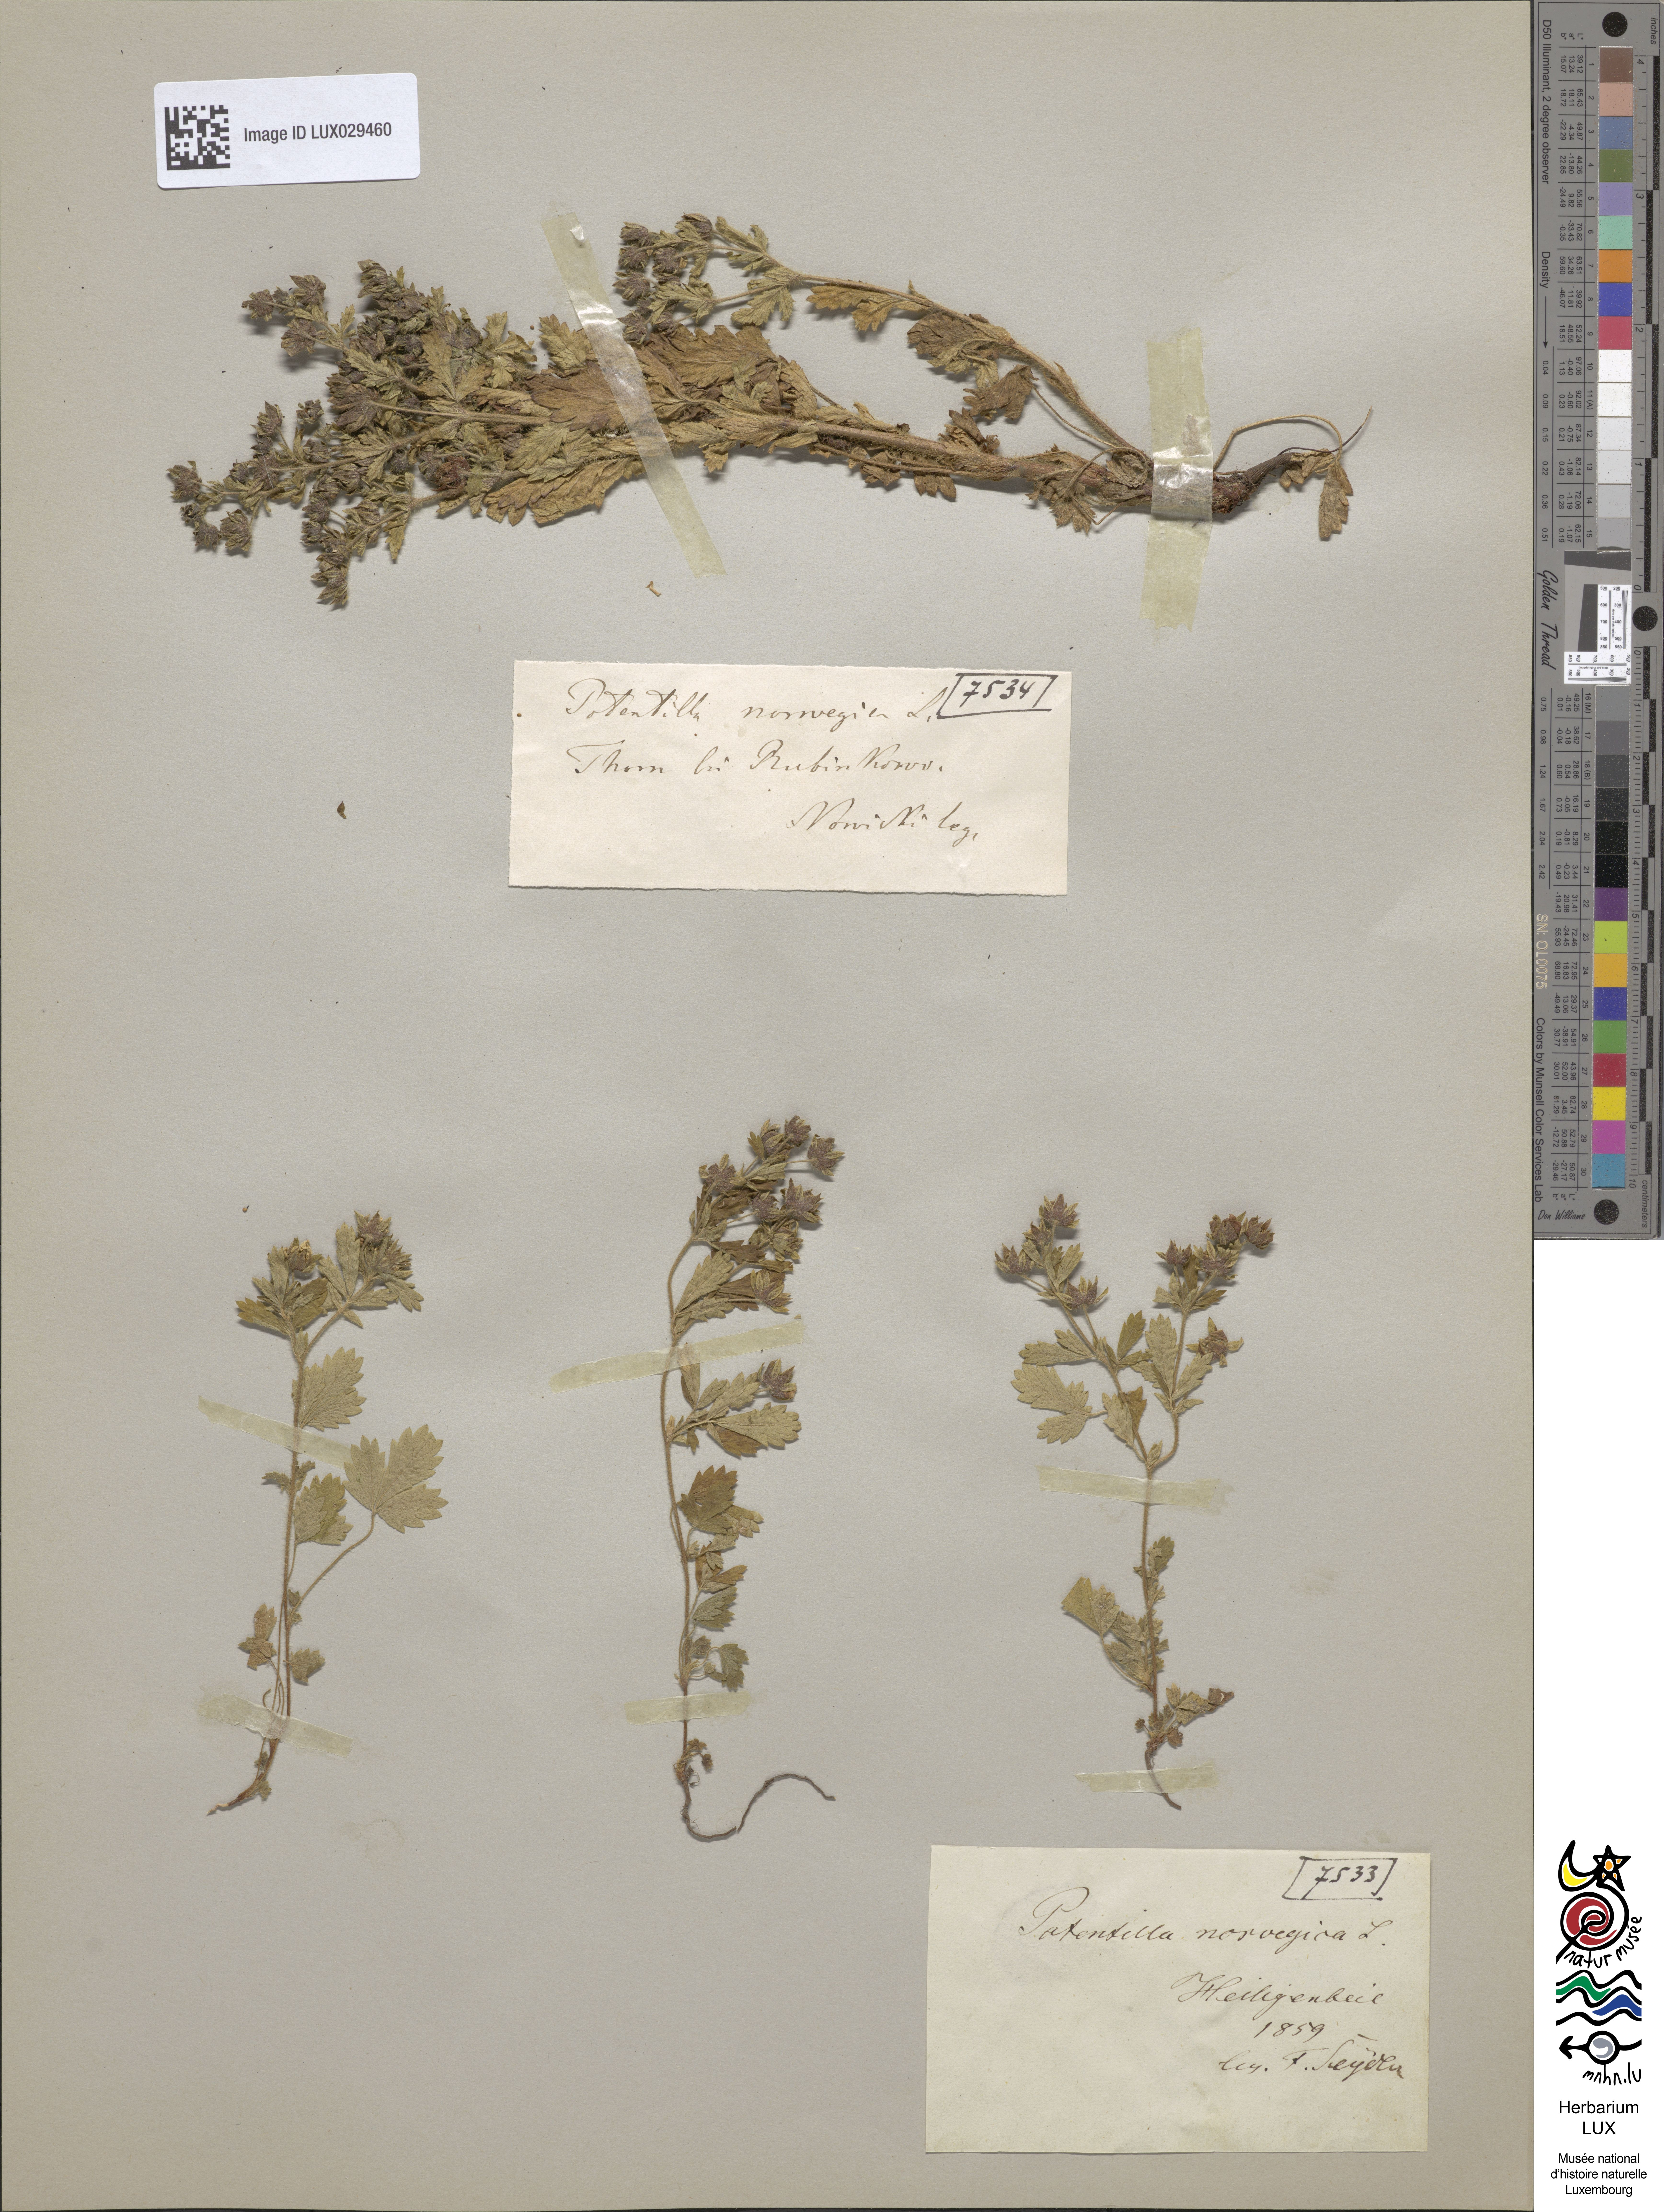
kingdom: Plantae
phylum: Tracheophyta
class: Magnoliopsida
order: Rosales
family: Rosaceae
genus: Potentilla
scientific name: Potentilla norvegica
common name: Ternate-leaved cinquefoil
